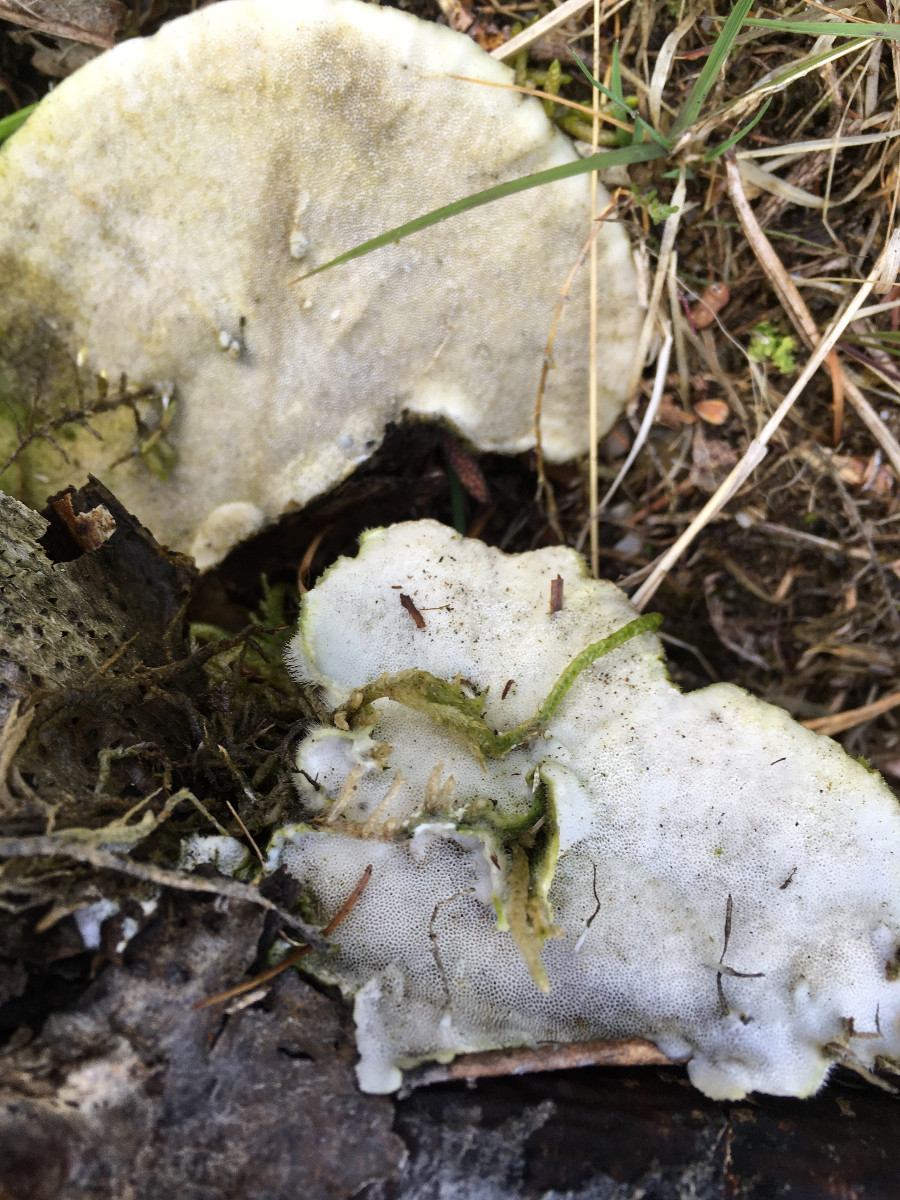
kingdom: Fungi
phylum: Basidiomycota
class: Agaricomycetes
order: Polyporales
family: Polyporaceae
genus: Trametes
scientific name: Trametes hirsuta
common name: håret læderporesvamp
